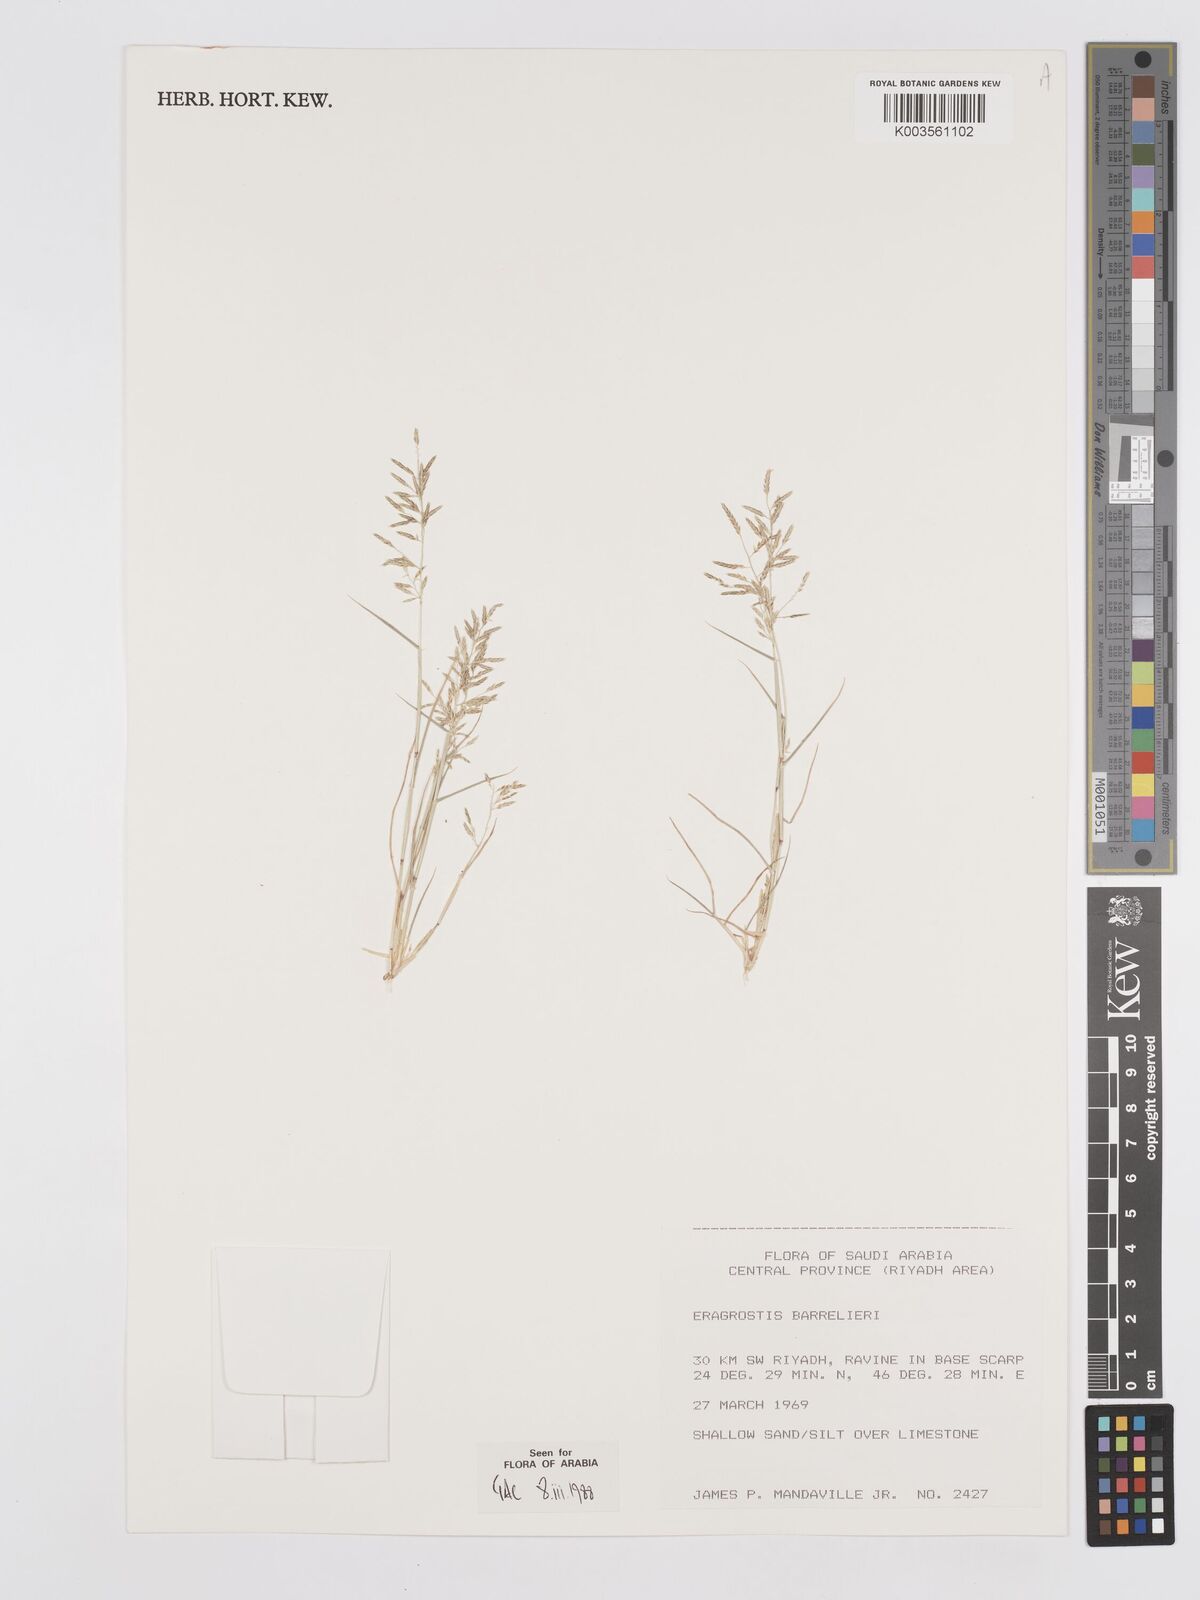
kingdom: Plantae
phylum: Tracheophyta
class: Liliopsida
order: Poales
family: Poaceae
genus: Eragrostis
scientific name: Eragrostis barrelieri
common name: Mediterranean lovegrass
